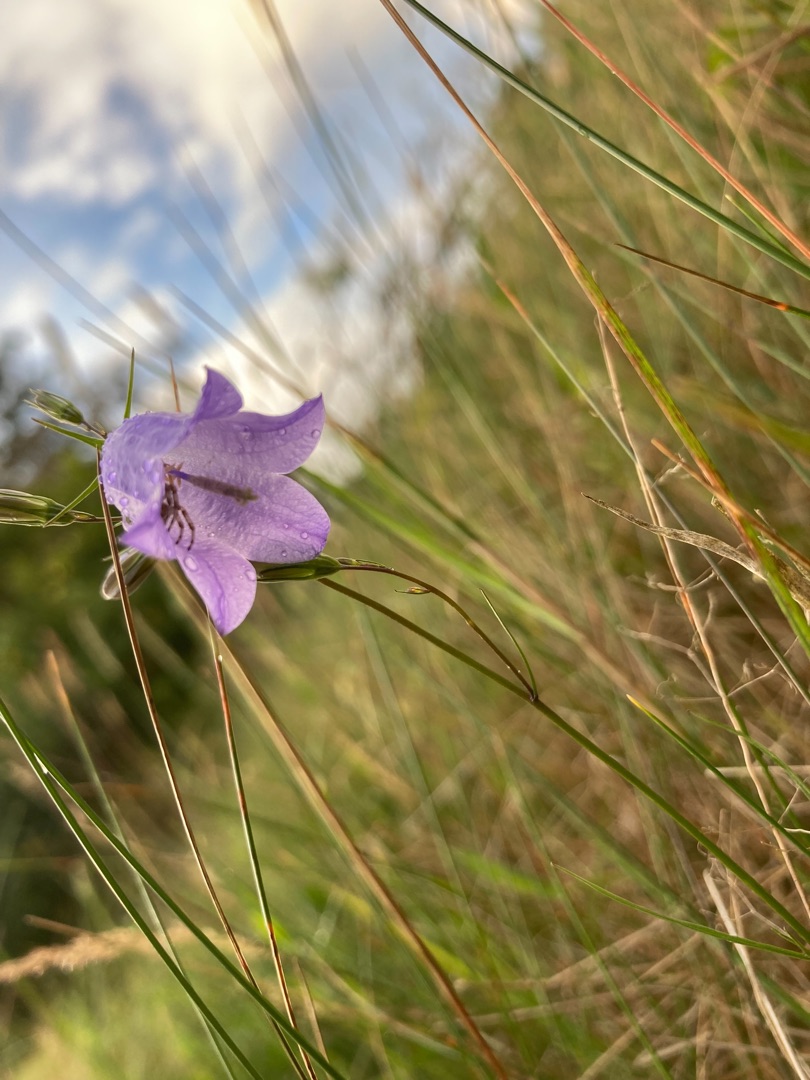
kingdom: Plantae
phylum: Tracheophyta
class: Magnoliopsida
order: Asterales
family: Campanulaceae
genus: Campanula
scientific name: Campanula rotundifolia
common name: Liden klokke
